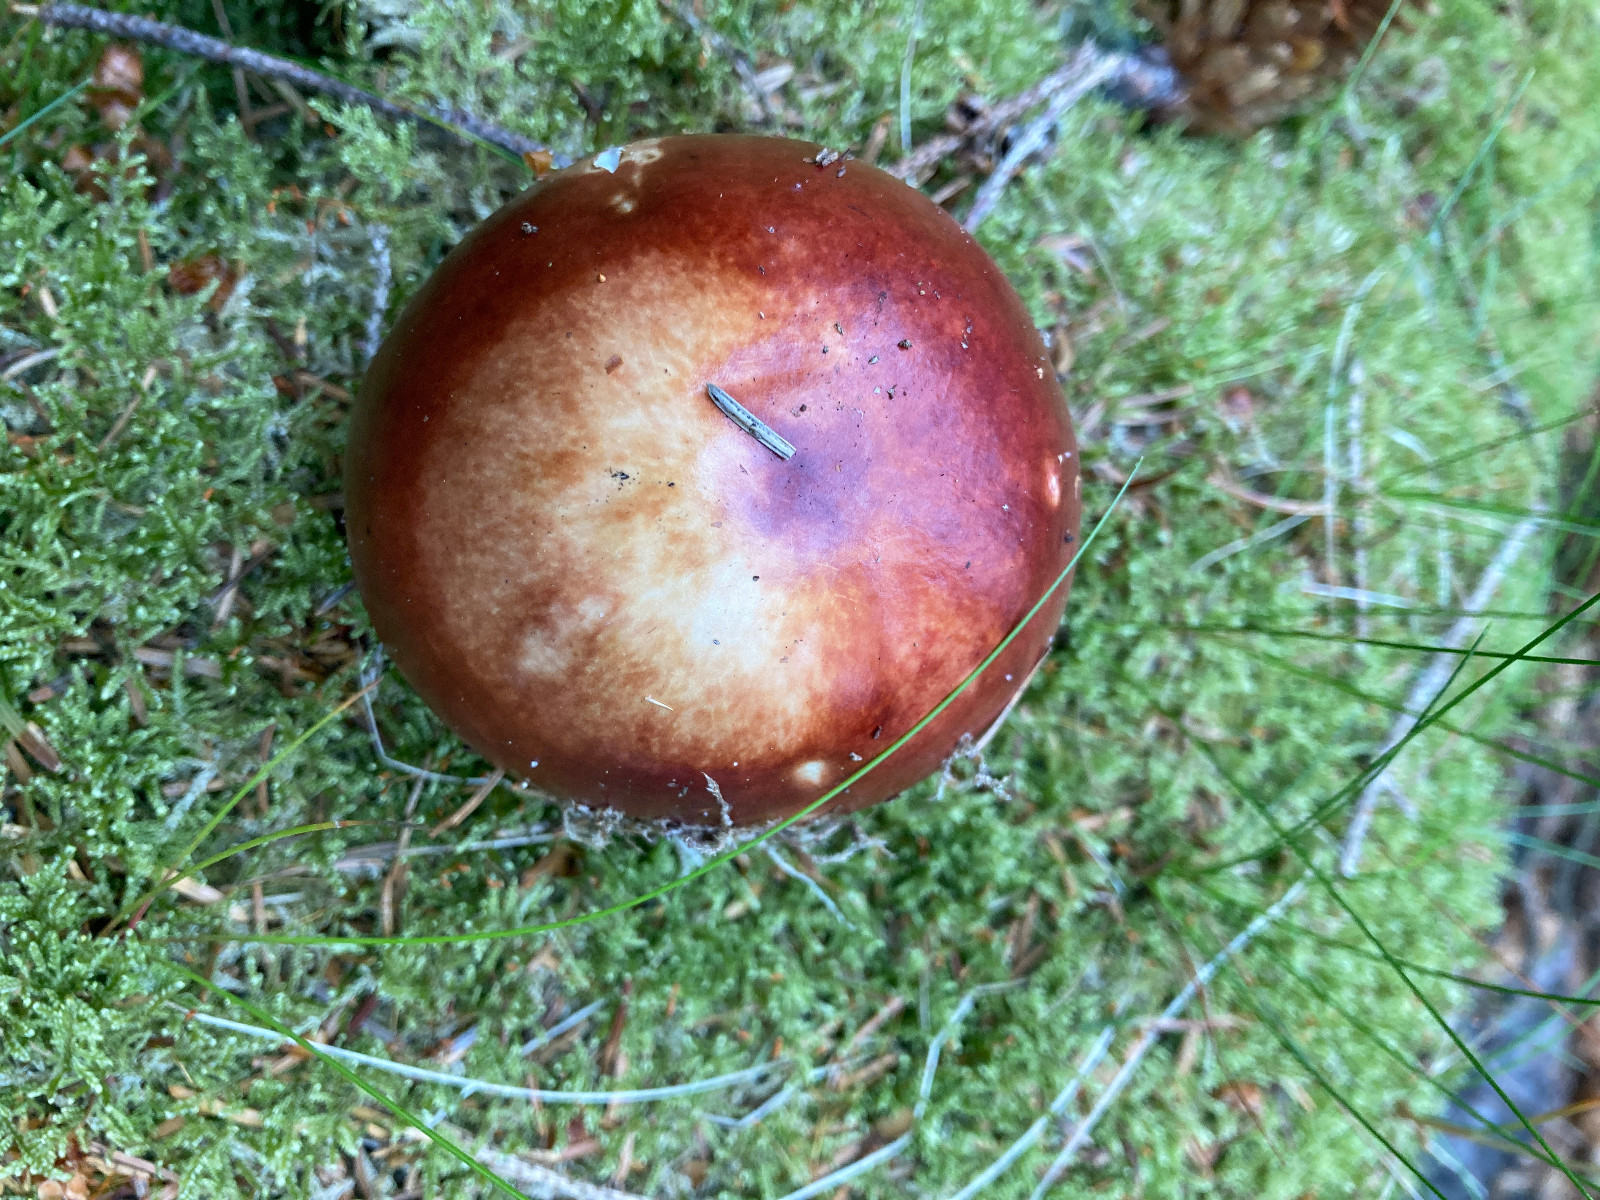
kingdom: Fungi
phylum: Basidiomycota
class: Agaricomycetes
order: Russulales
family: Russulaceae
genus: Russula
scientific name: Russula paludosa
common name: prægtig skørhat
